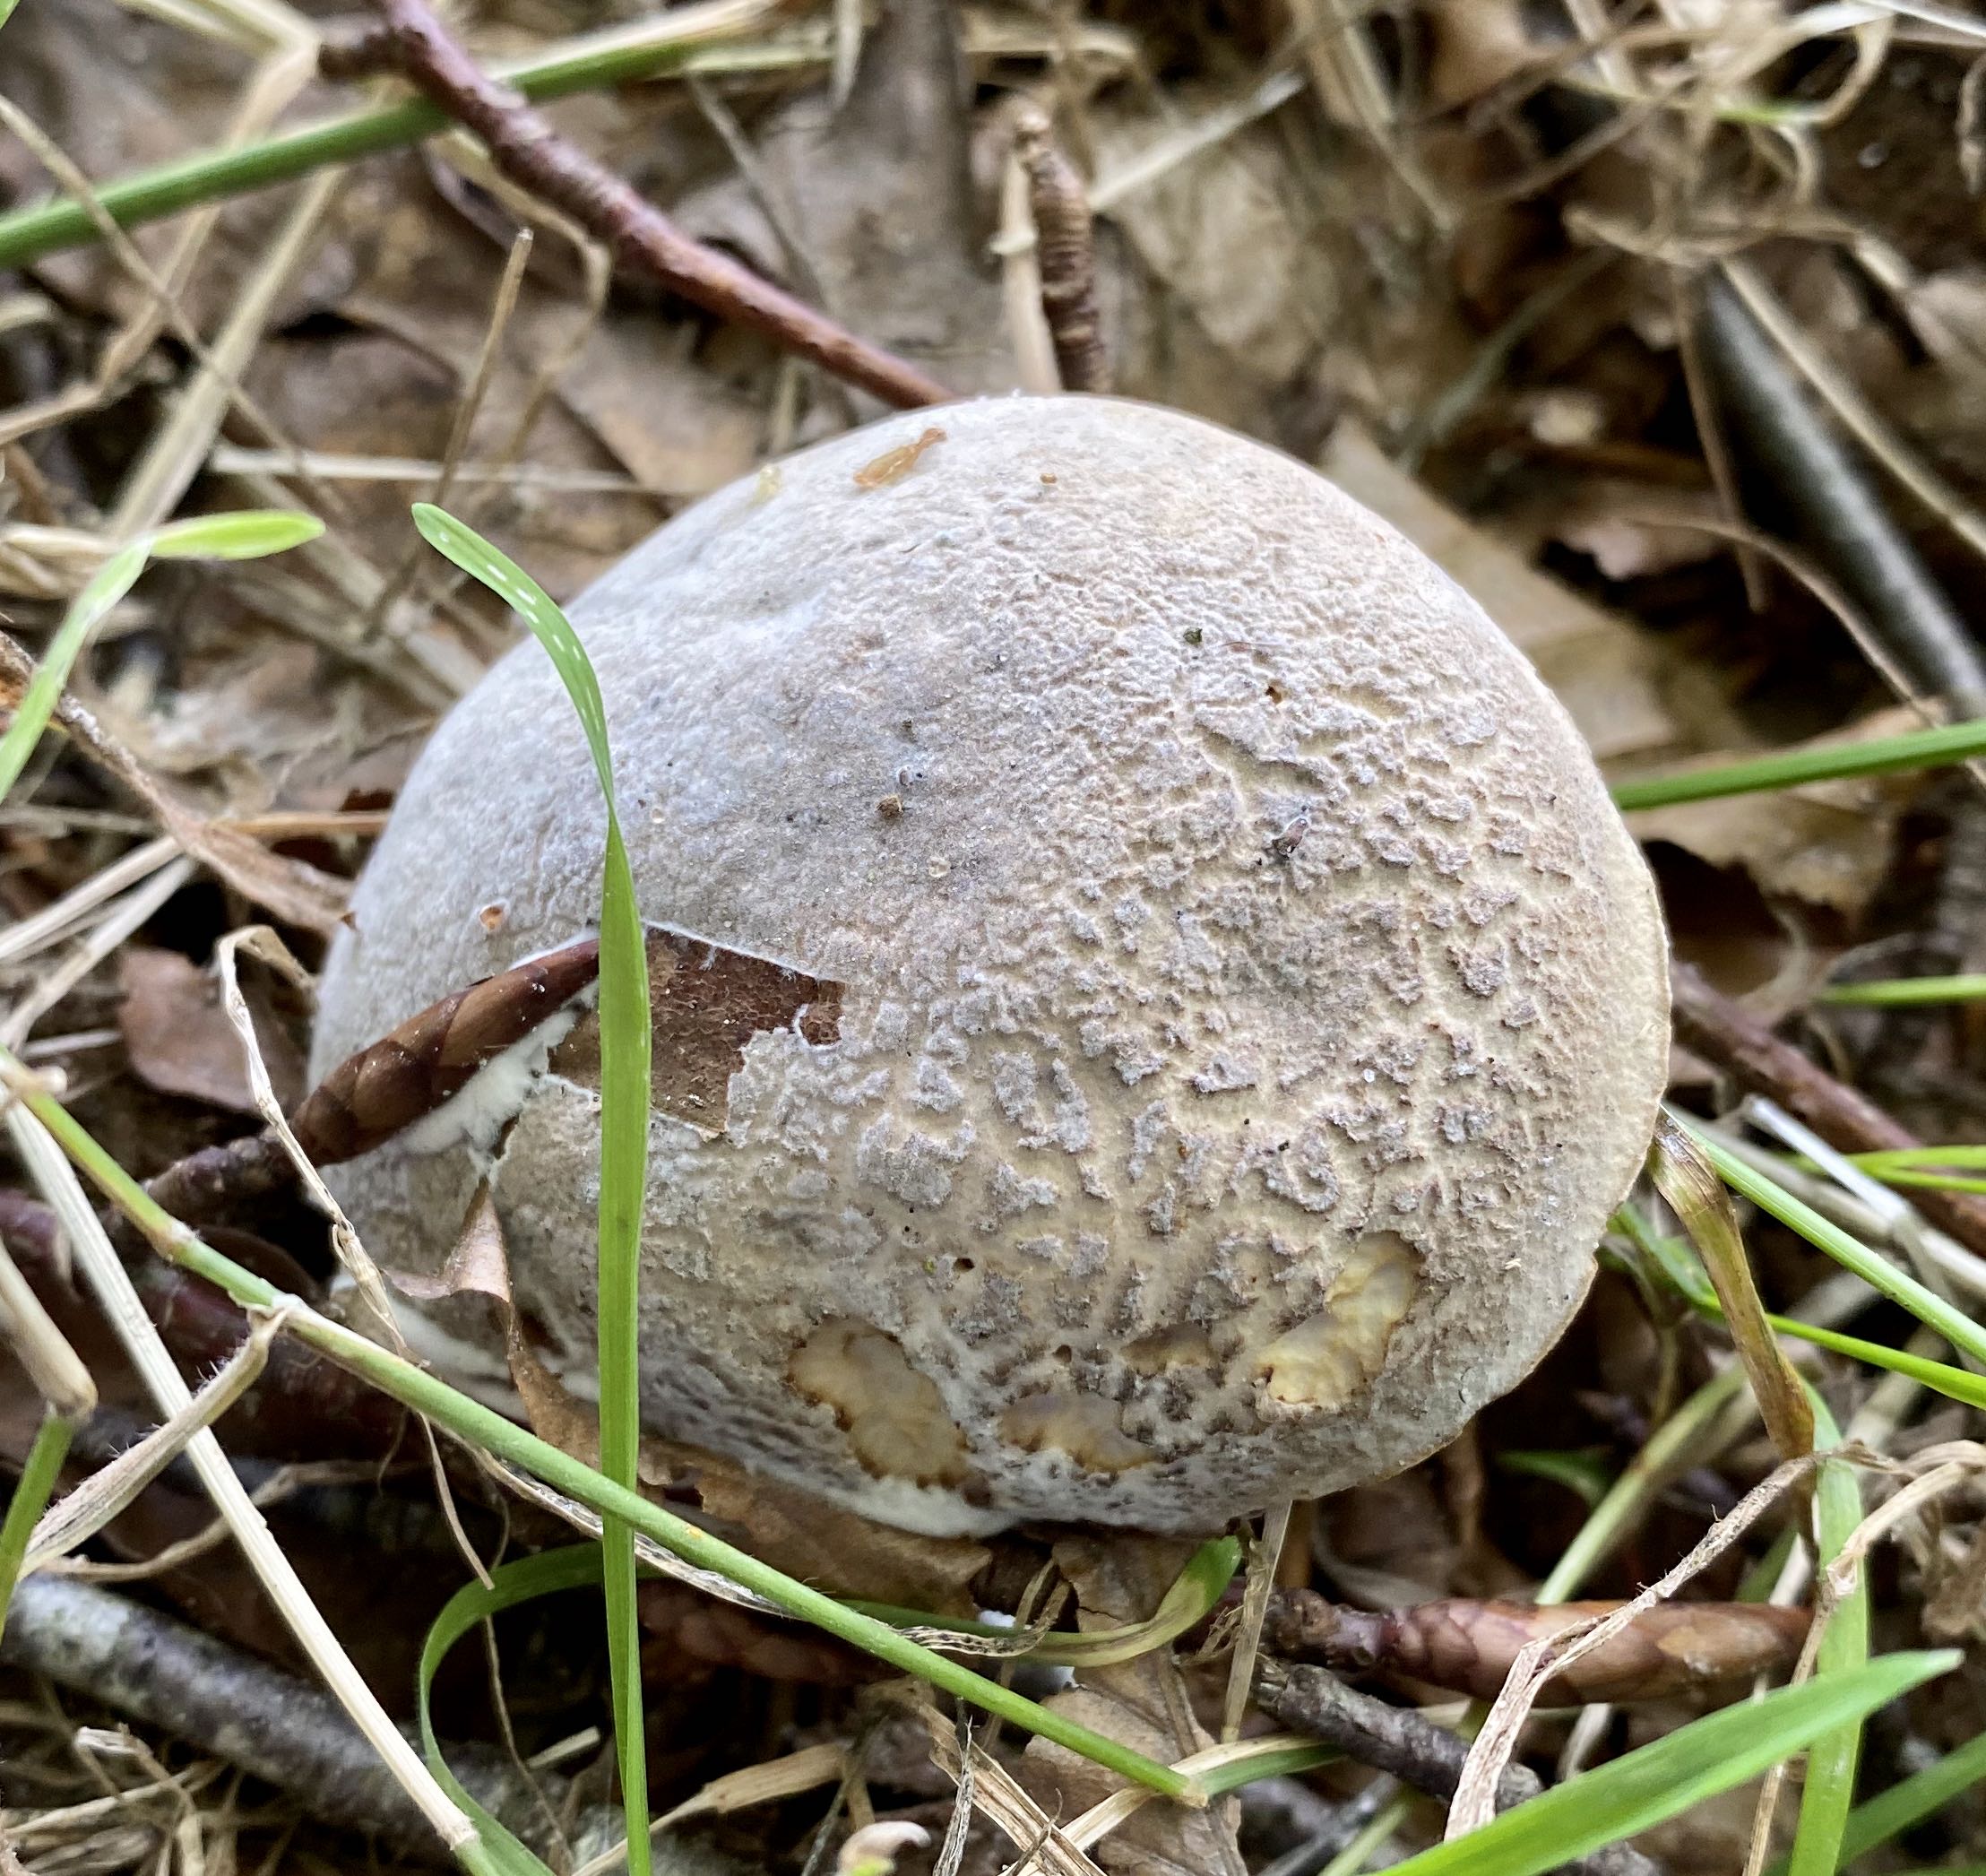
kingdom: Fungi
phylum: Ascomycota
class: Sordariomycetes
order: Hypocreales
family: Hypocreaceae
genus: Hypomyces
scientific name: Hypomyces microspermus
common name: dværgrørhat-snylteskorpe
